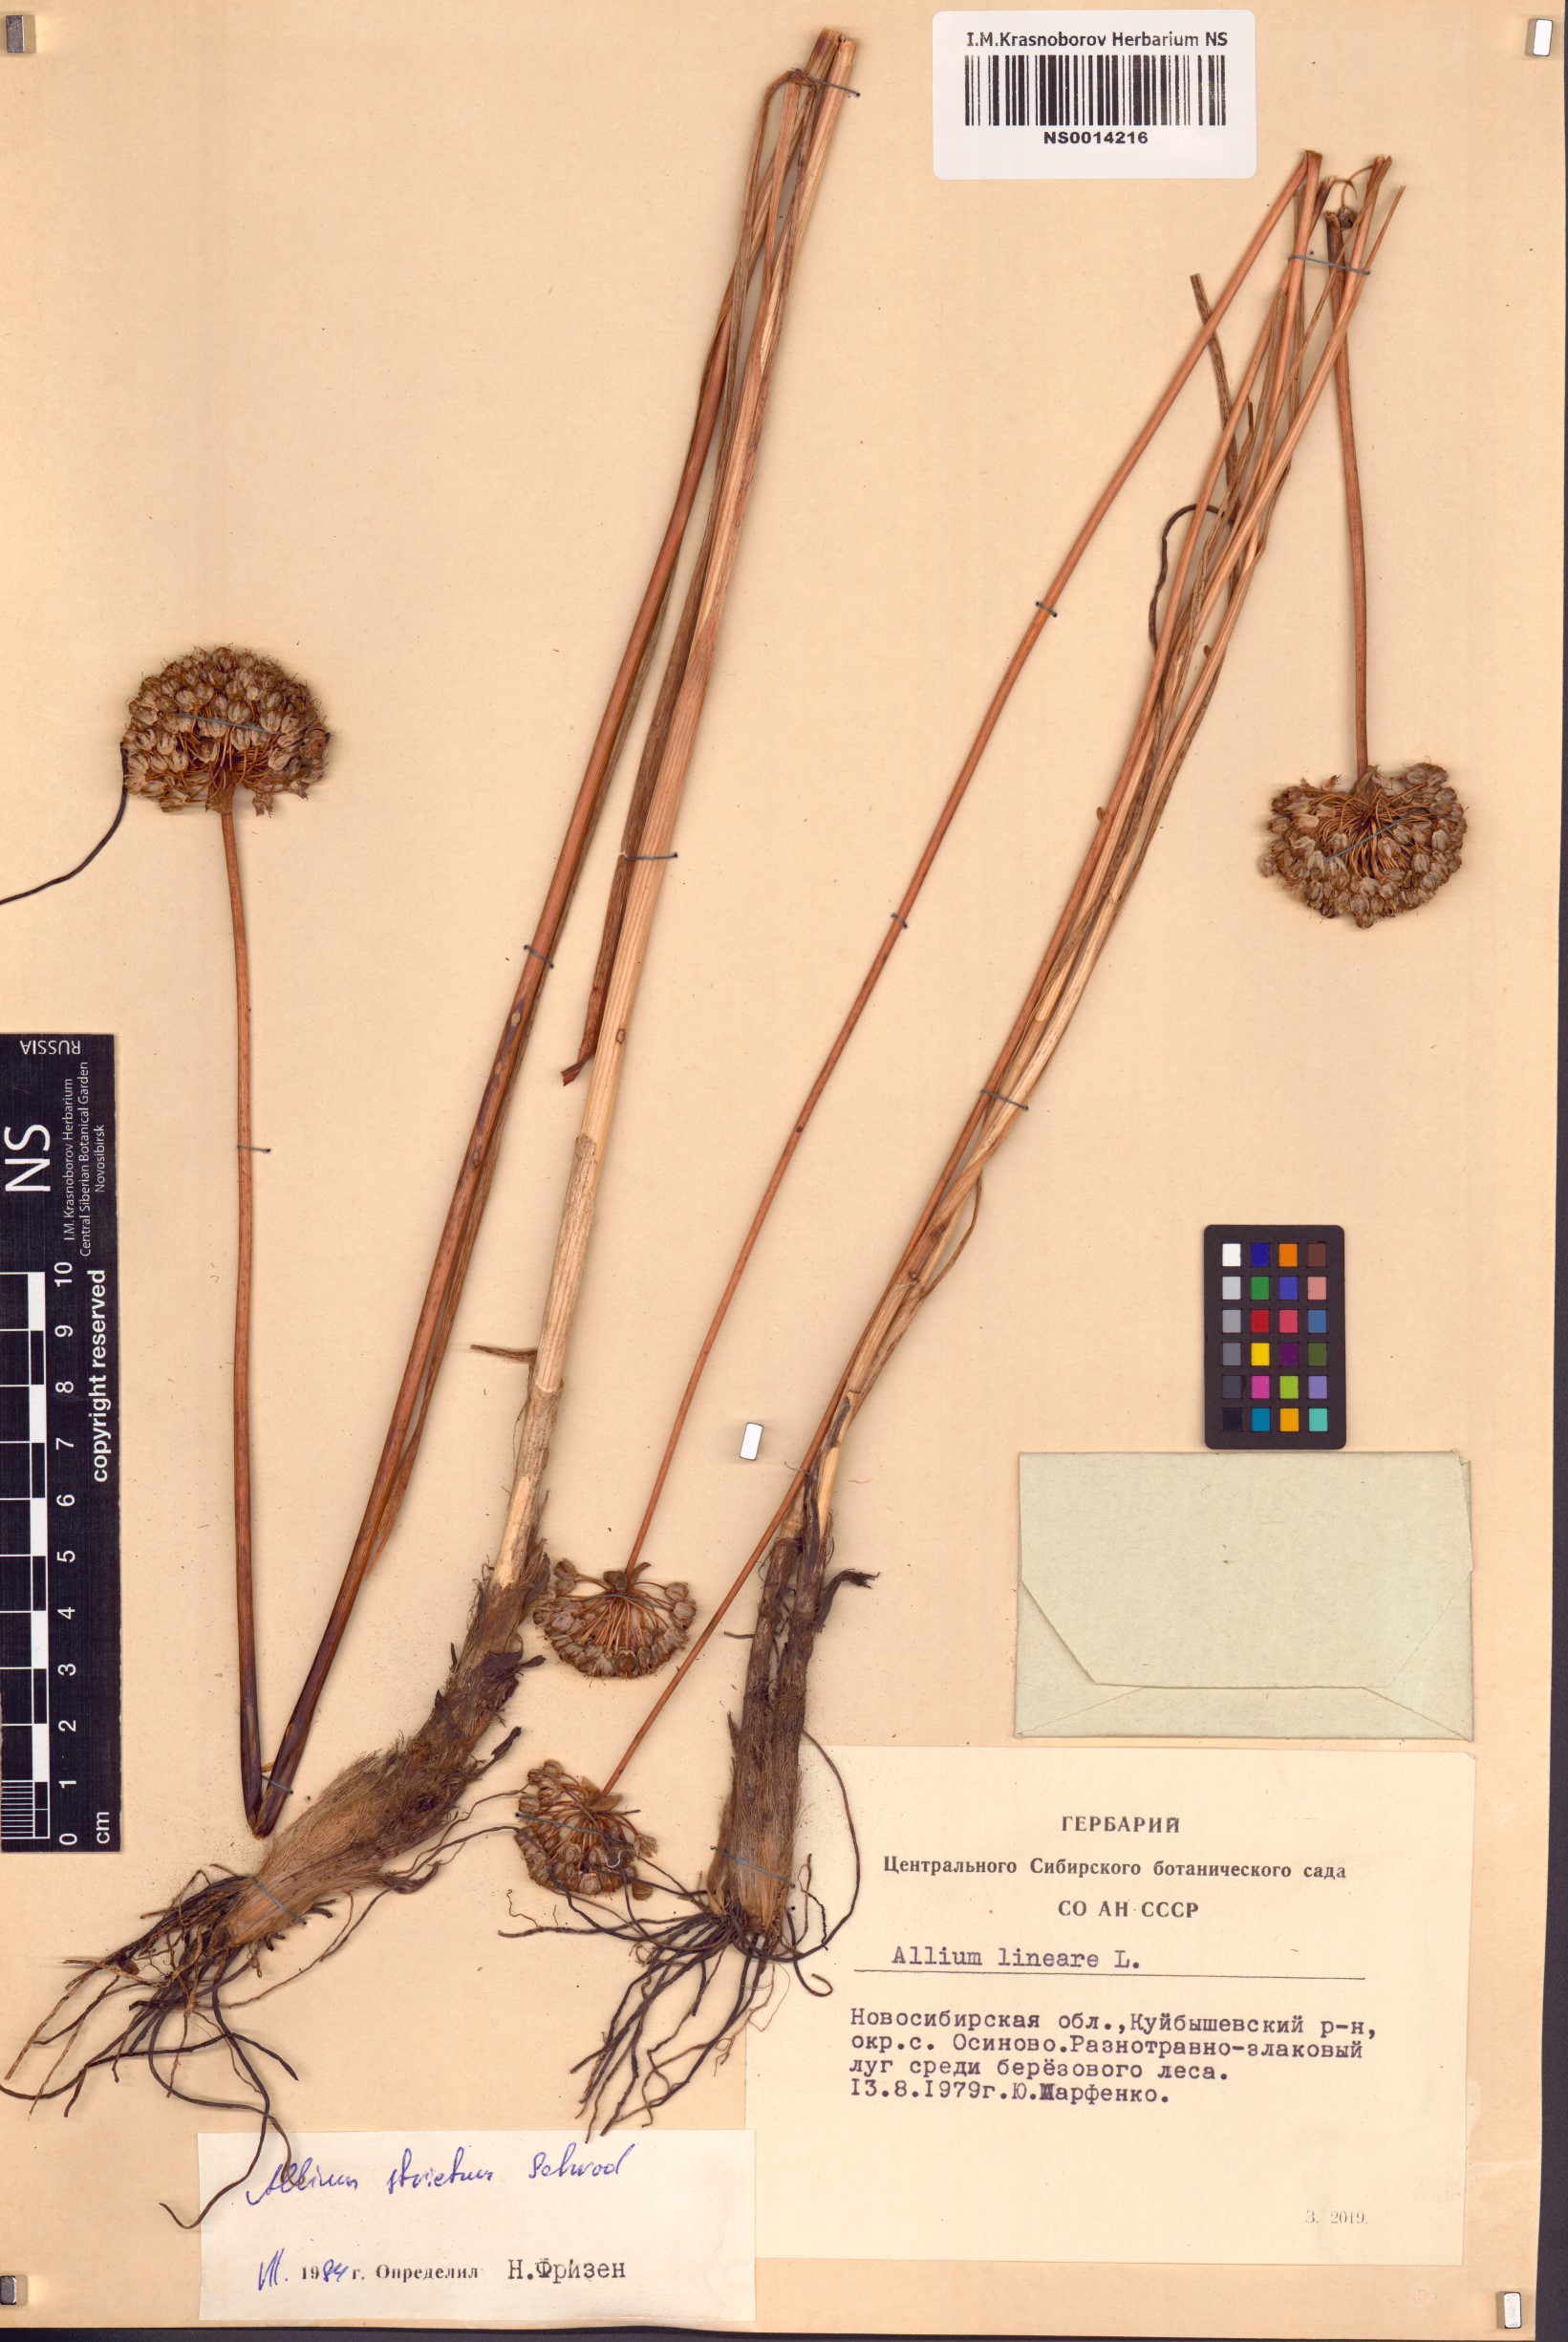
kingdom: Plantae
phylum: Tracheophyta
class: Liliopsida
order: Asparagales
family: Amaryllidaceae
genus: Allium
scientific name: Allium strictum
